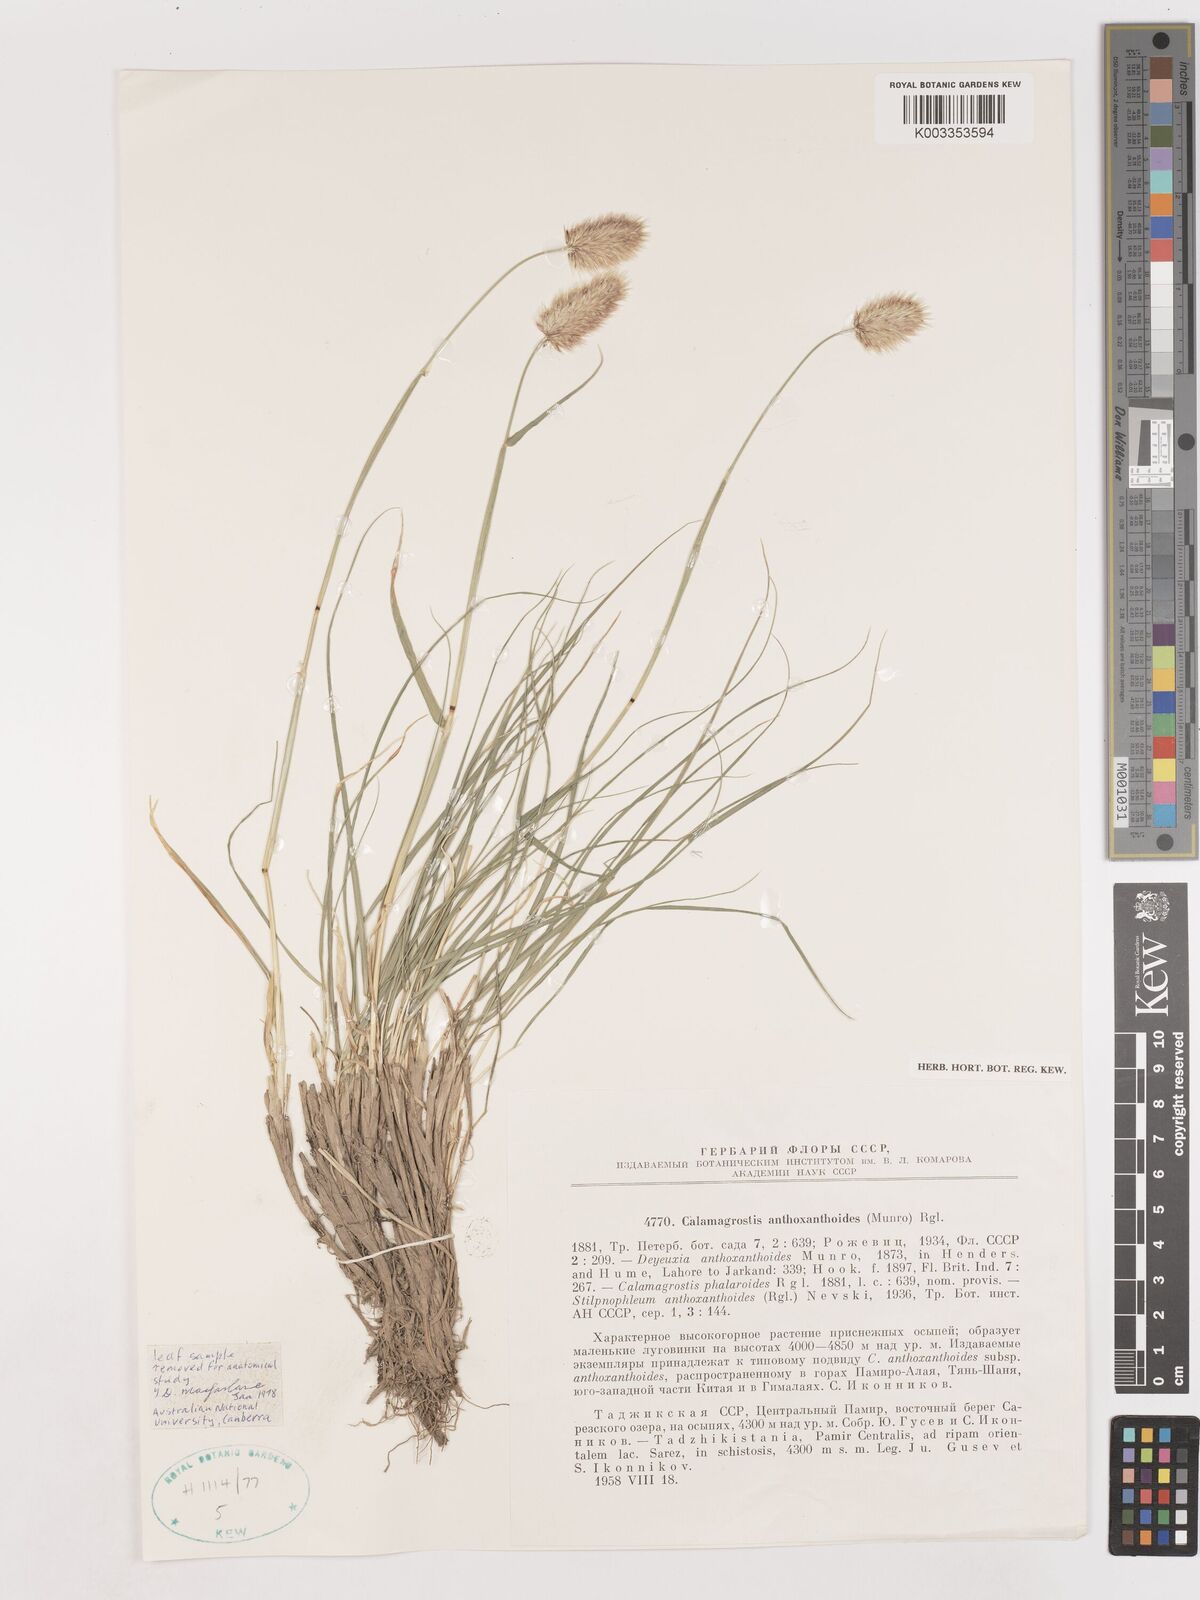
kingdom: Plantae
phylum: Tracheophyta
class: Liliopsida
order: Poales
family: Poaceae
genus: Calamagrostis
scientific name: Calamagrostis anthoxanthoides
